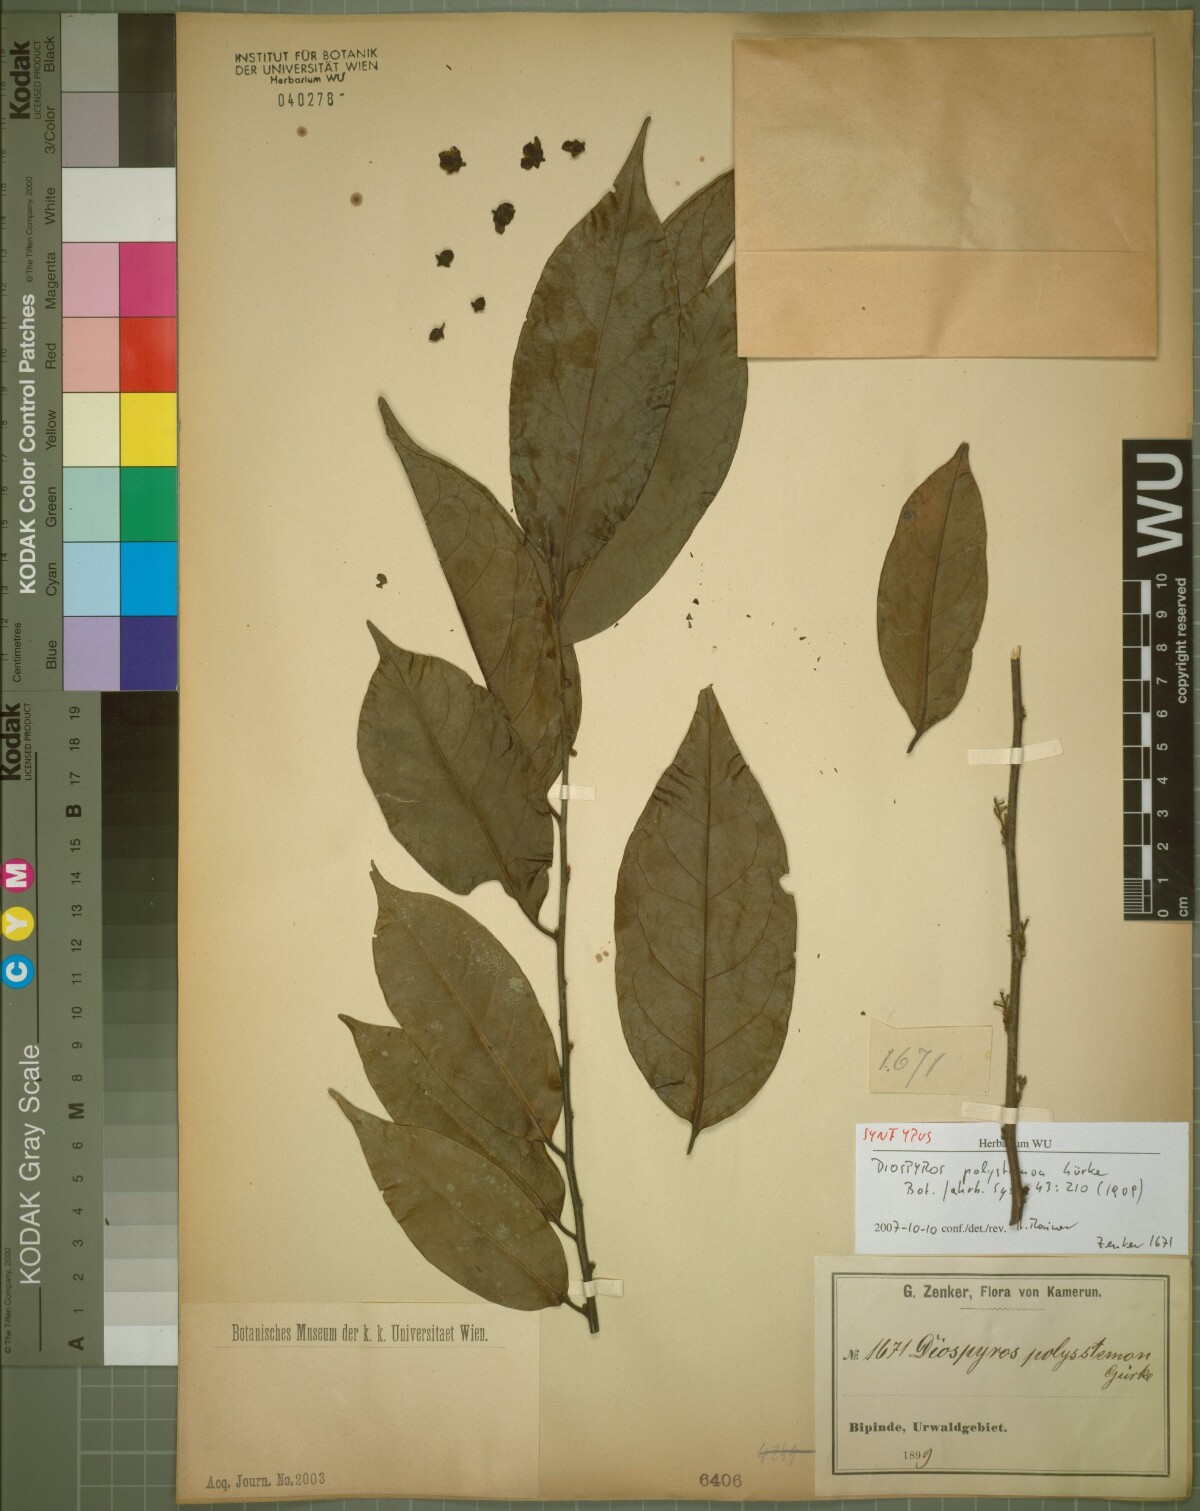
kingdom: Plantae
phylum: Tracheophyta
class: Magnoliopsida
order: Ericales
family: Ebenaceae
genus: Diospyros
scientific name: Diospyros polystemon
